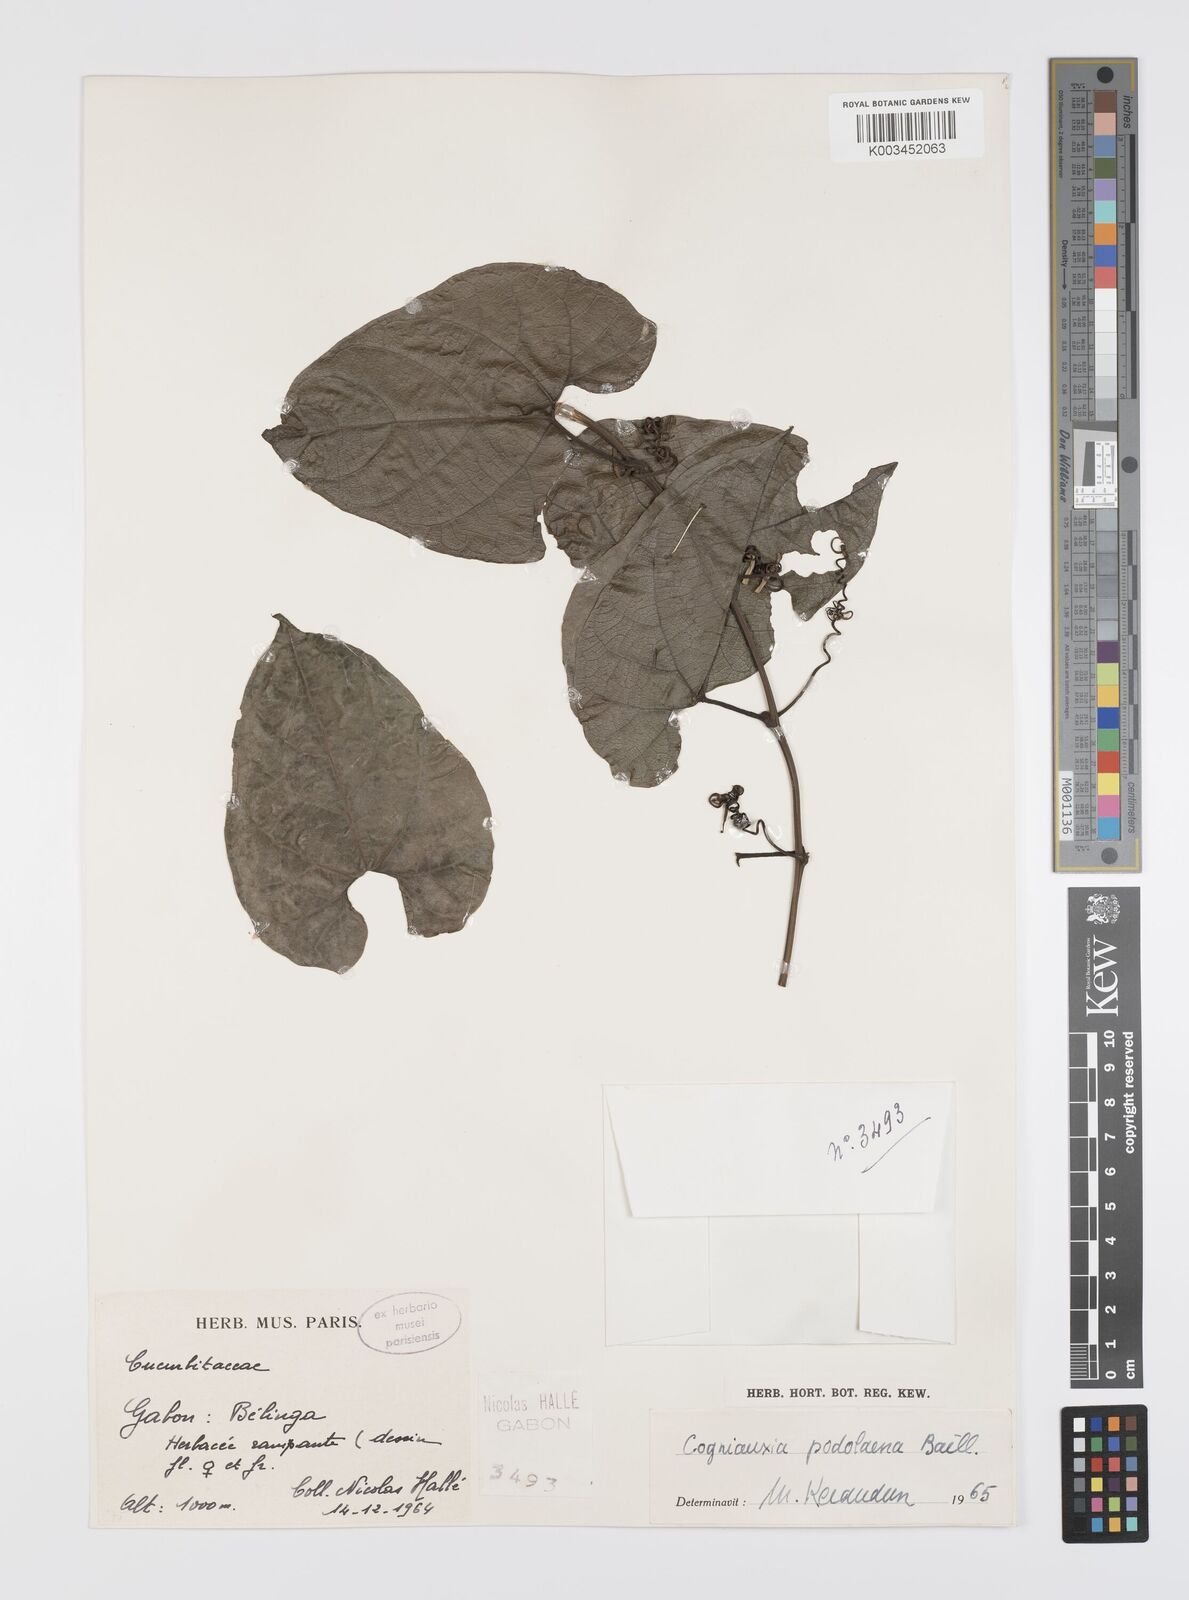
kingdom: Plantae
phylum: Tracheophyta
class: Magnoliopsida
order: Cucurbitales
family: Cucurbitaceae
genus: Cogniauxia
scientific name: Cogniauxia podolaena
